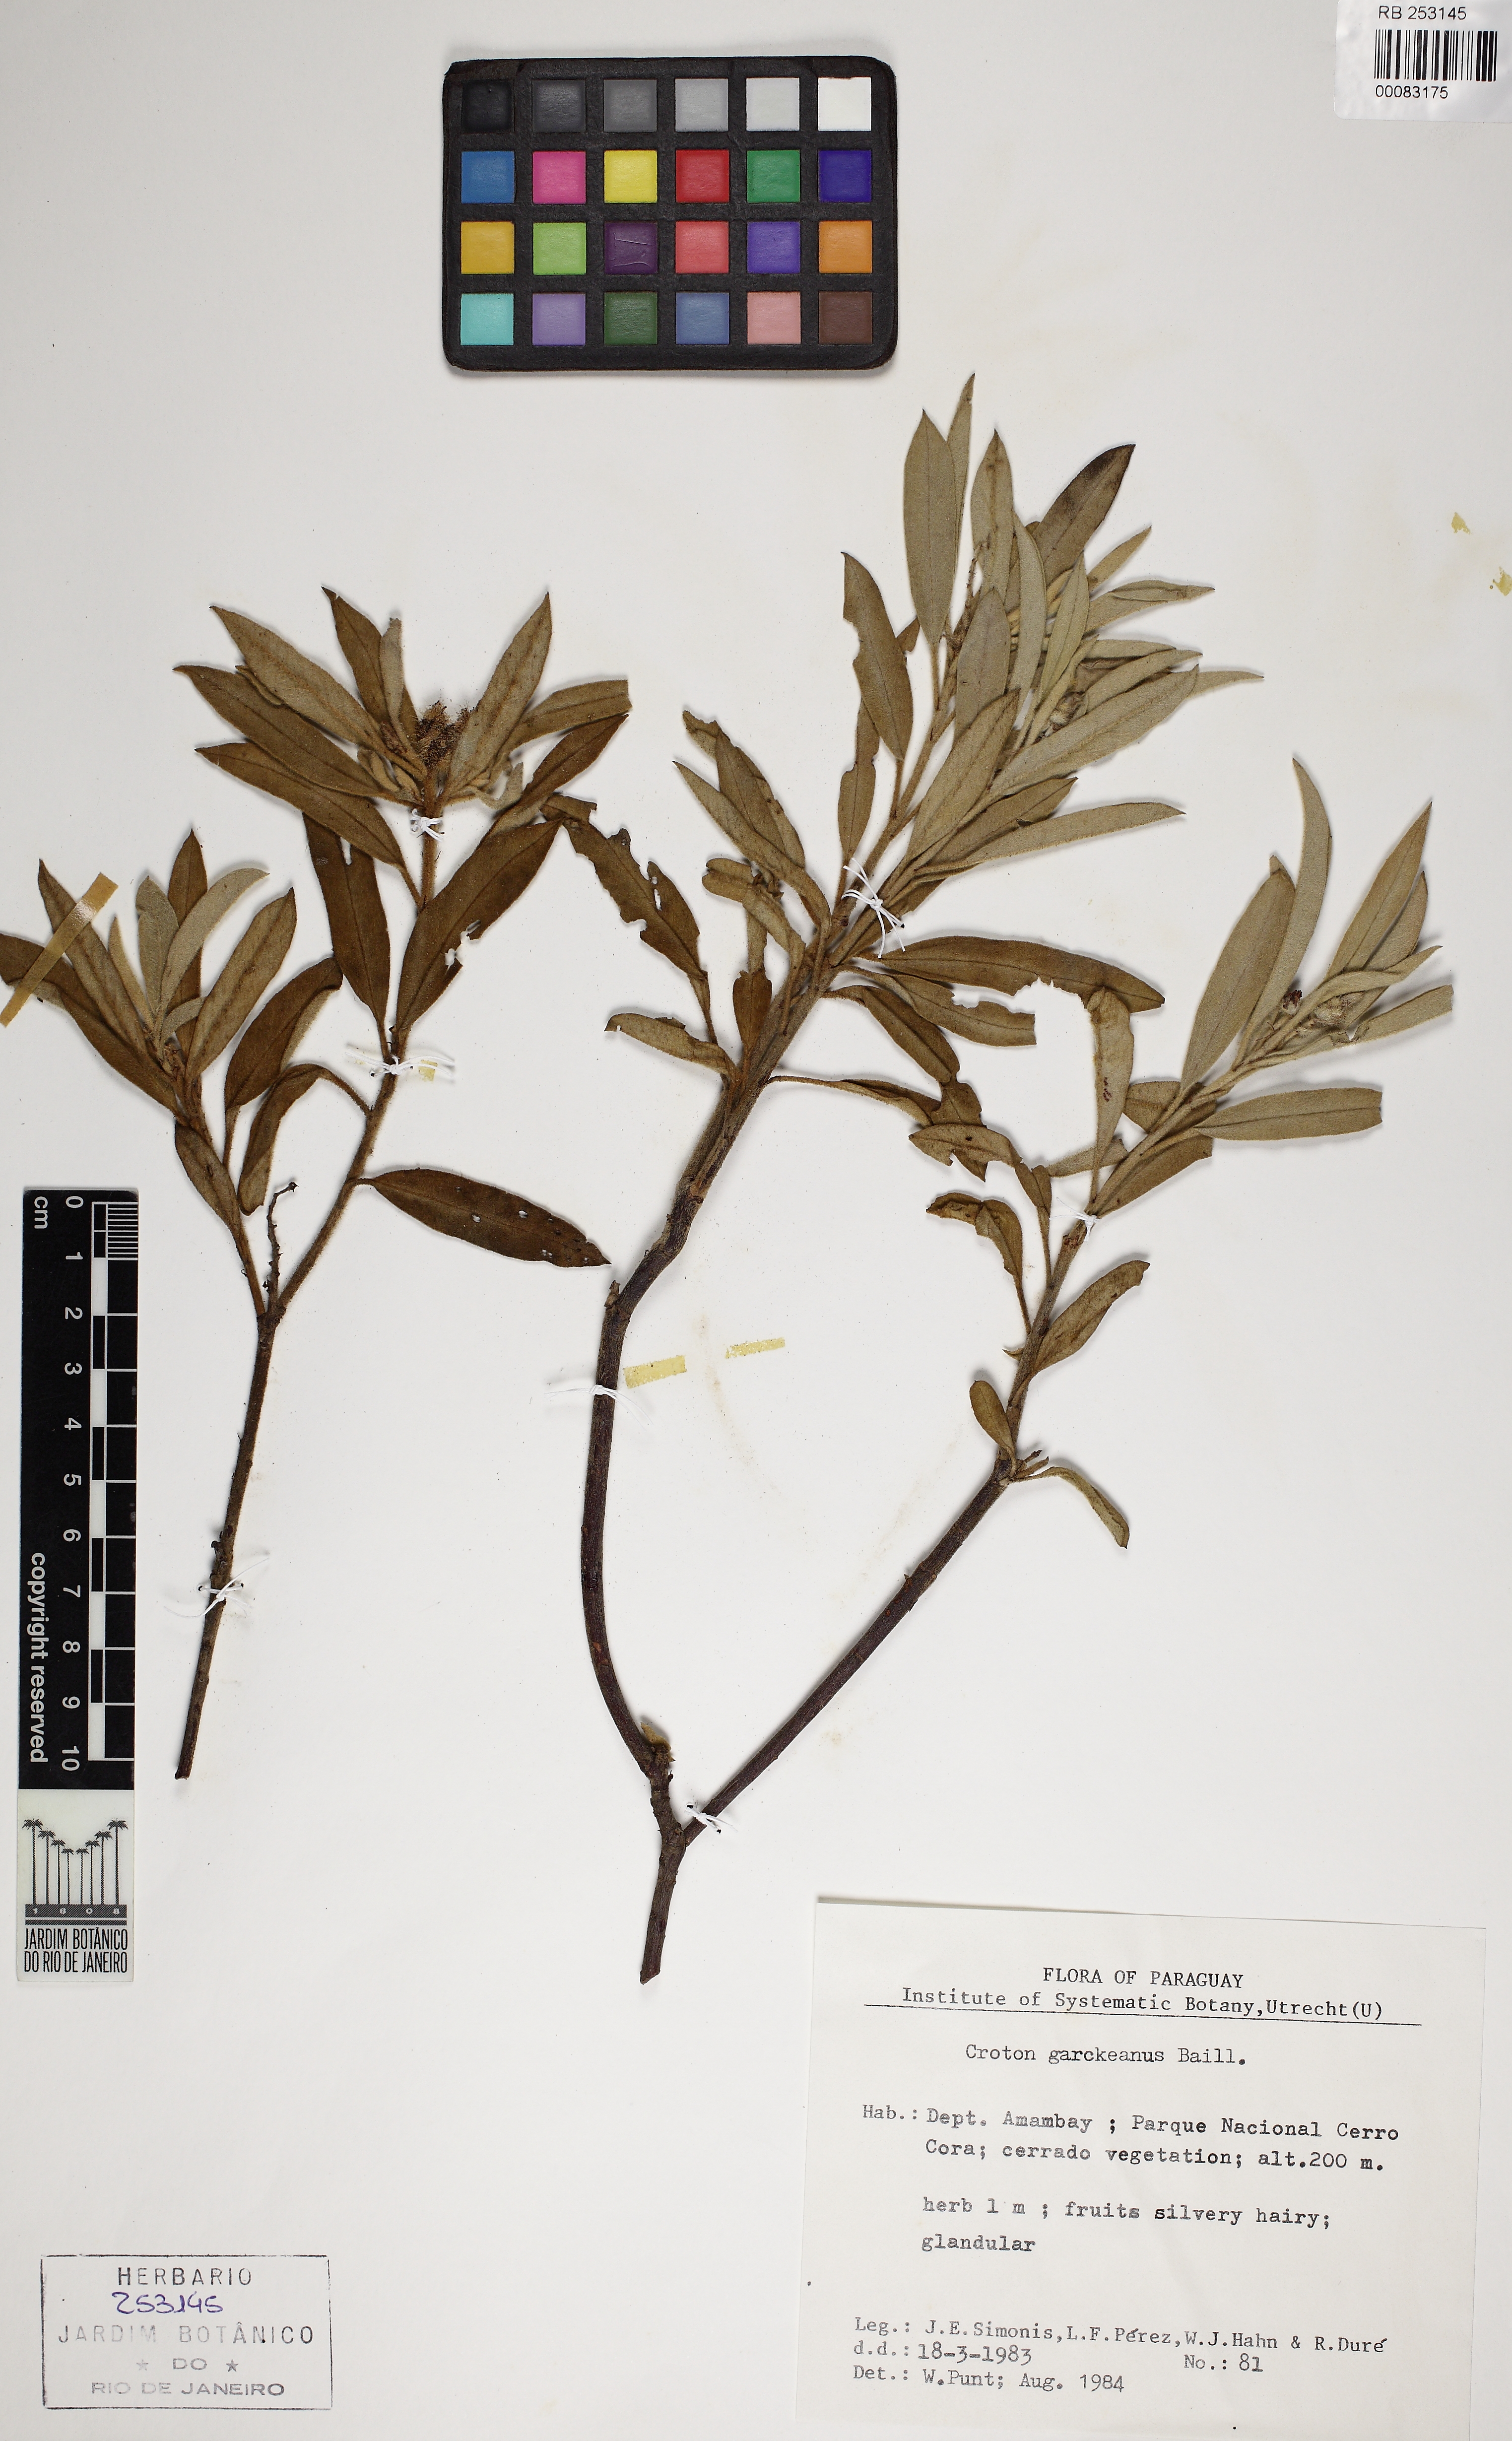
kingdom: Plantae
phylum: Tracheophyta
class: Magnoliopsida
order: Malpighiales
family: Euphorbiaceae
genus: Croton
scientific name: Croton serratifolius
